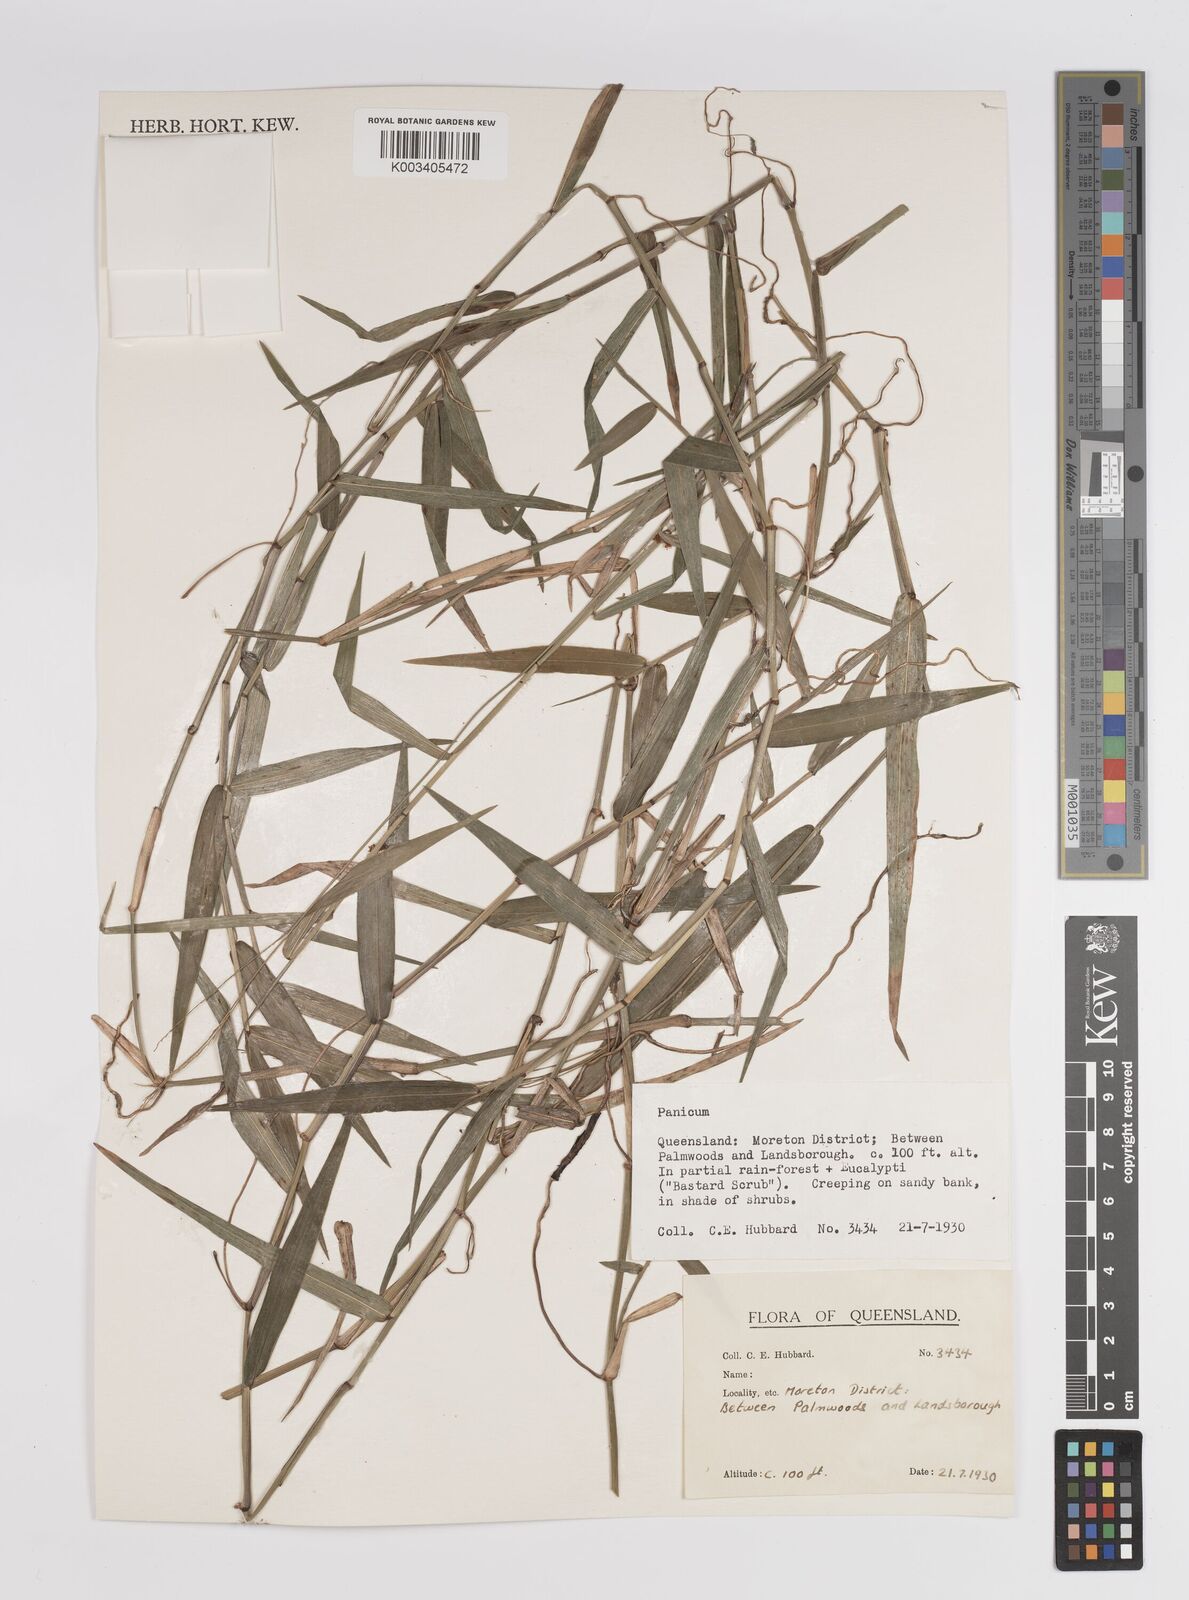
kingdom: Plantae
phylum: Tracheophyta
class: Liliopsida
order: Poales
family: Poaceae
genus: Panicum
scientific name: Panicum
